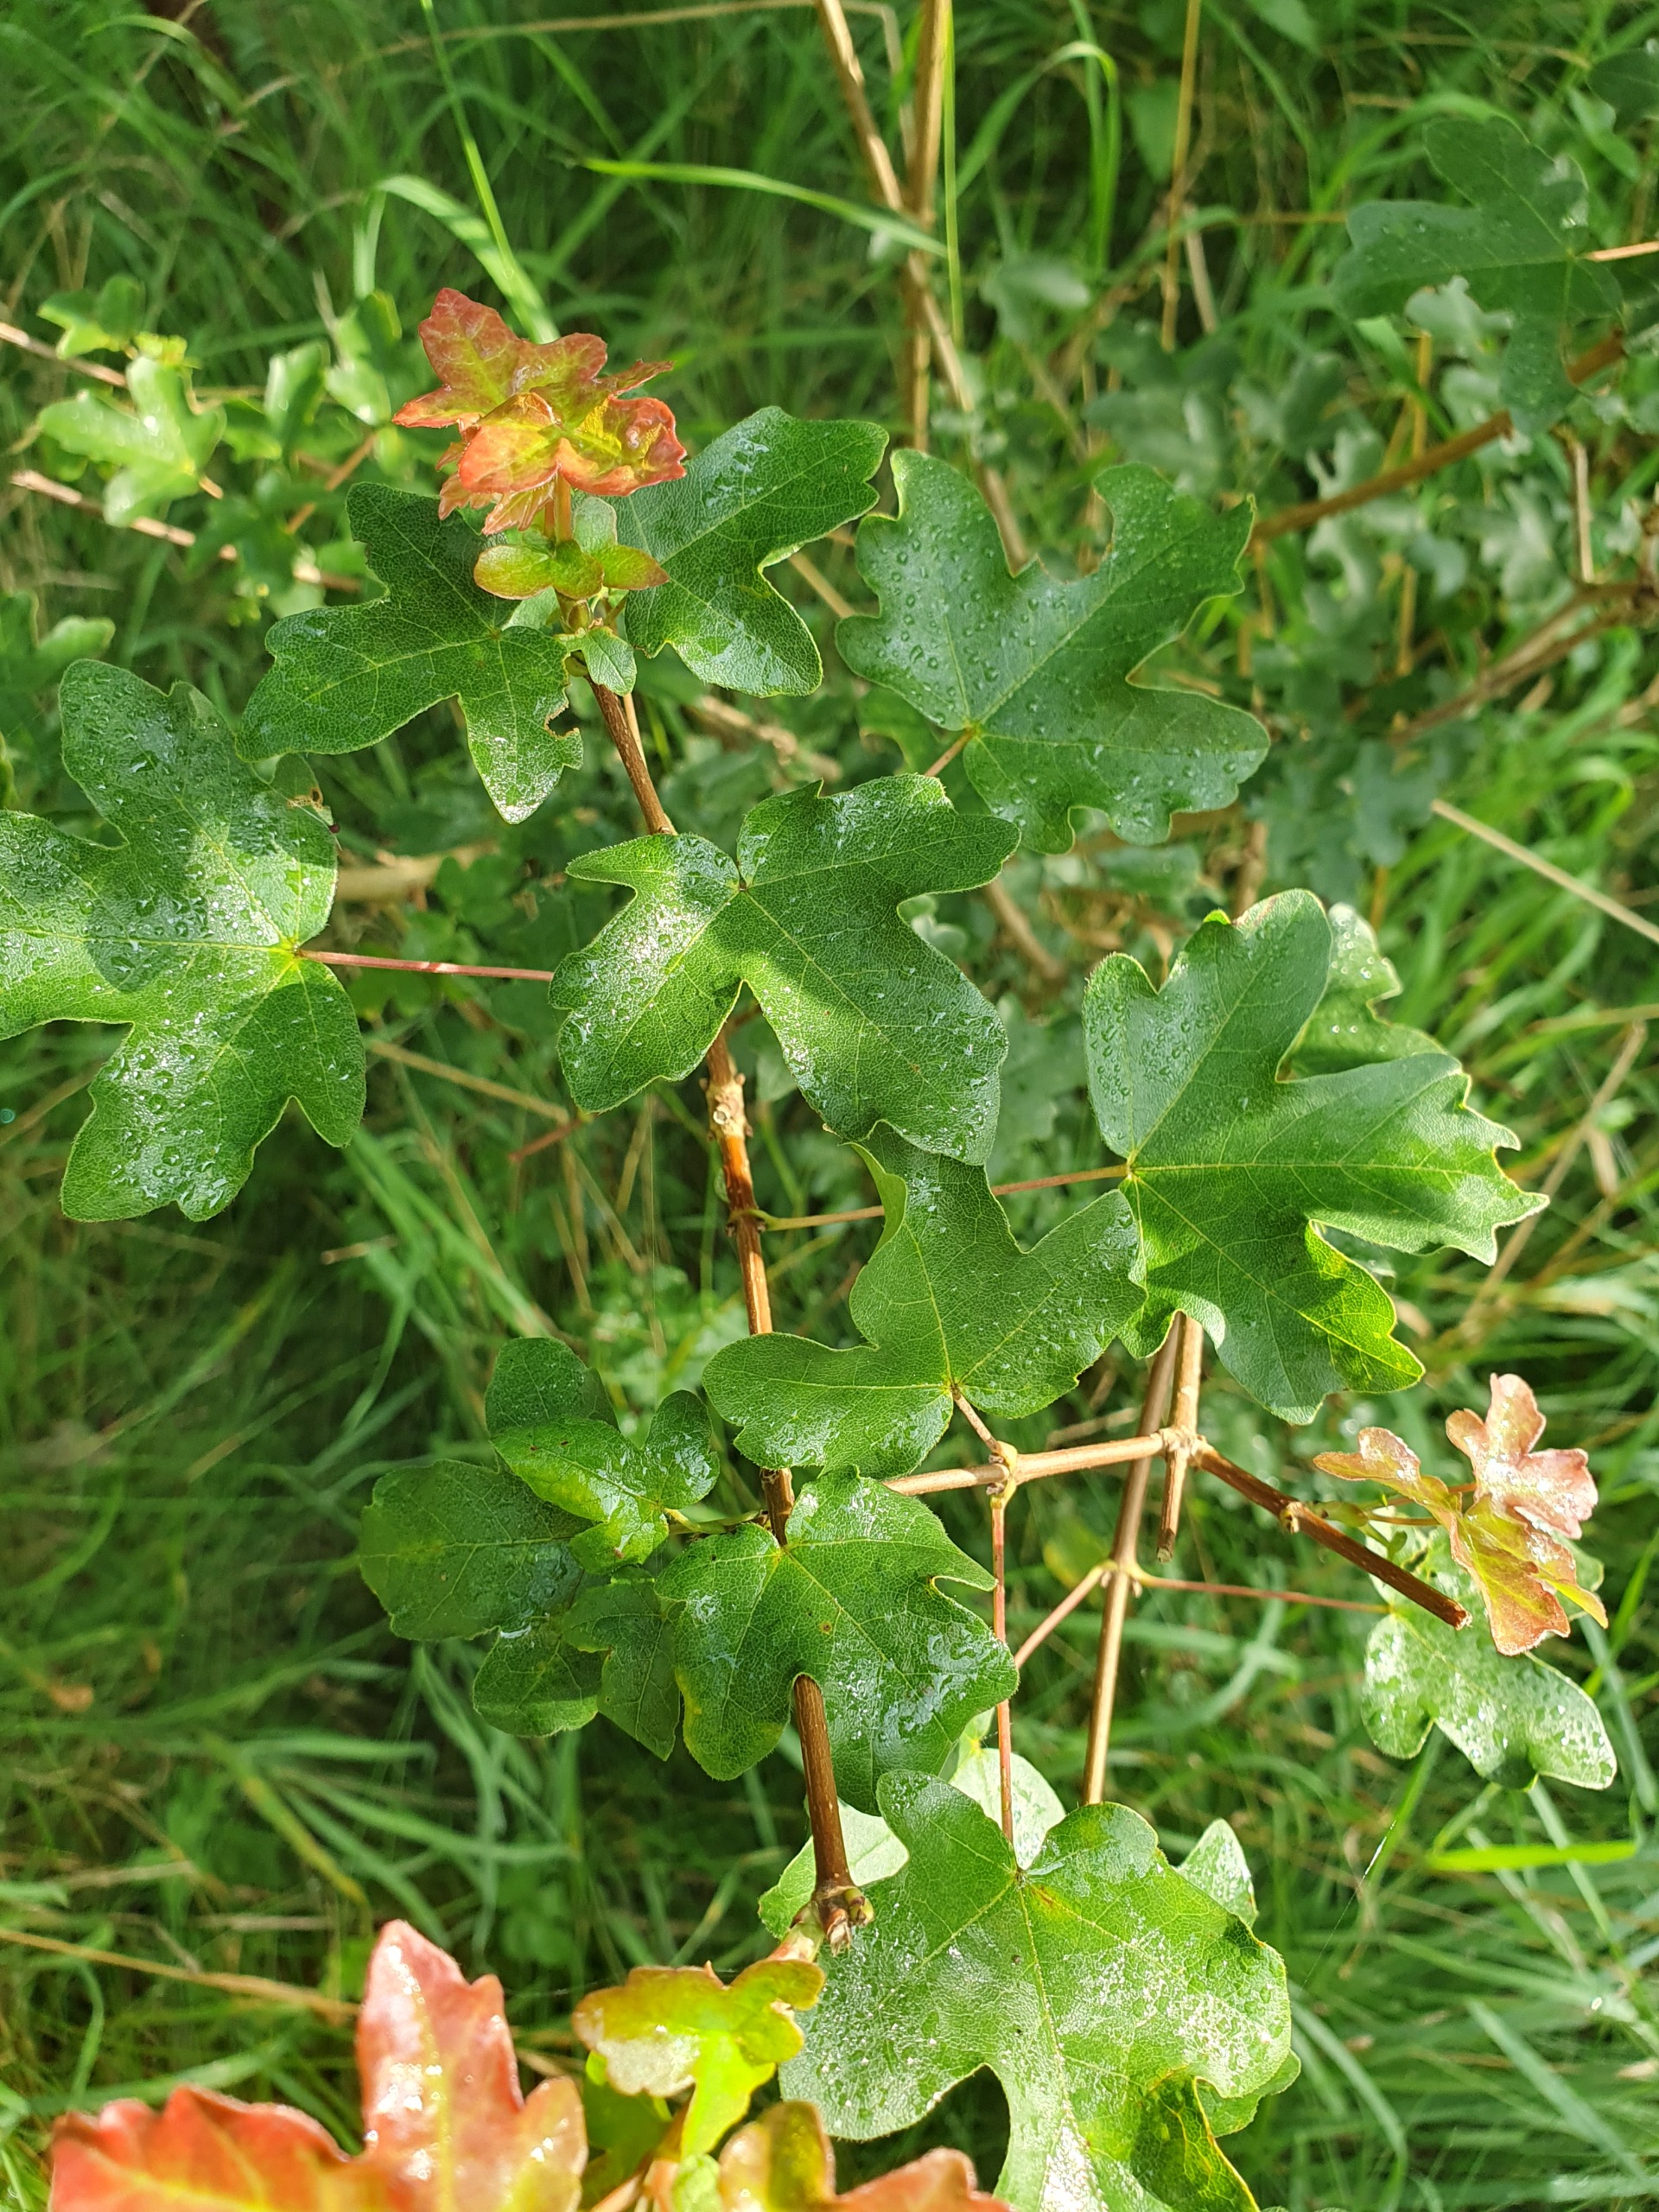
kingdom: Plantae
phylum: Tracheophyta
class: Magnoliopsida
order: Sapindales
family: Sapindaceae
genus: Acer
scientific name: Acer campestre
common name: Navr
